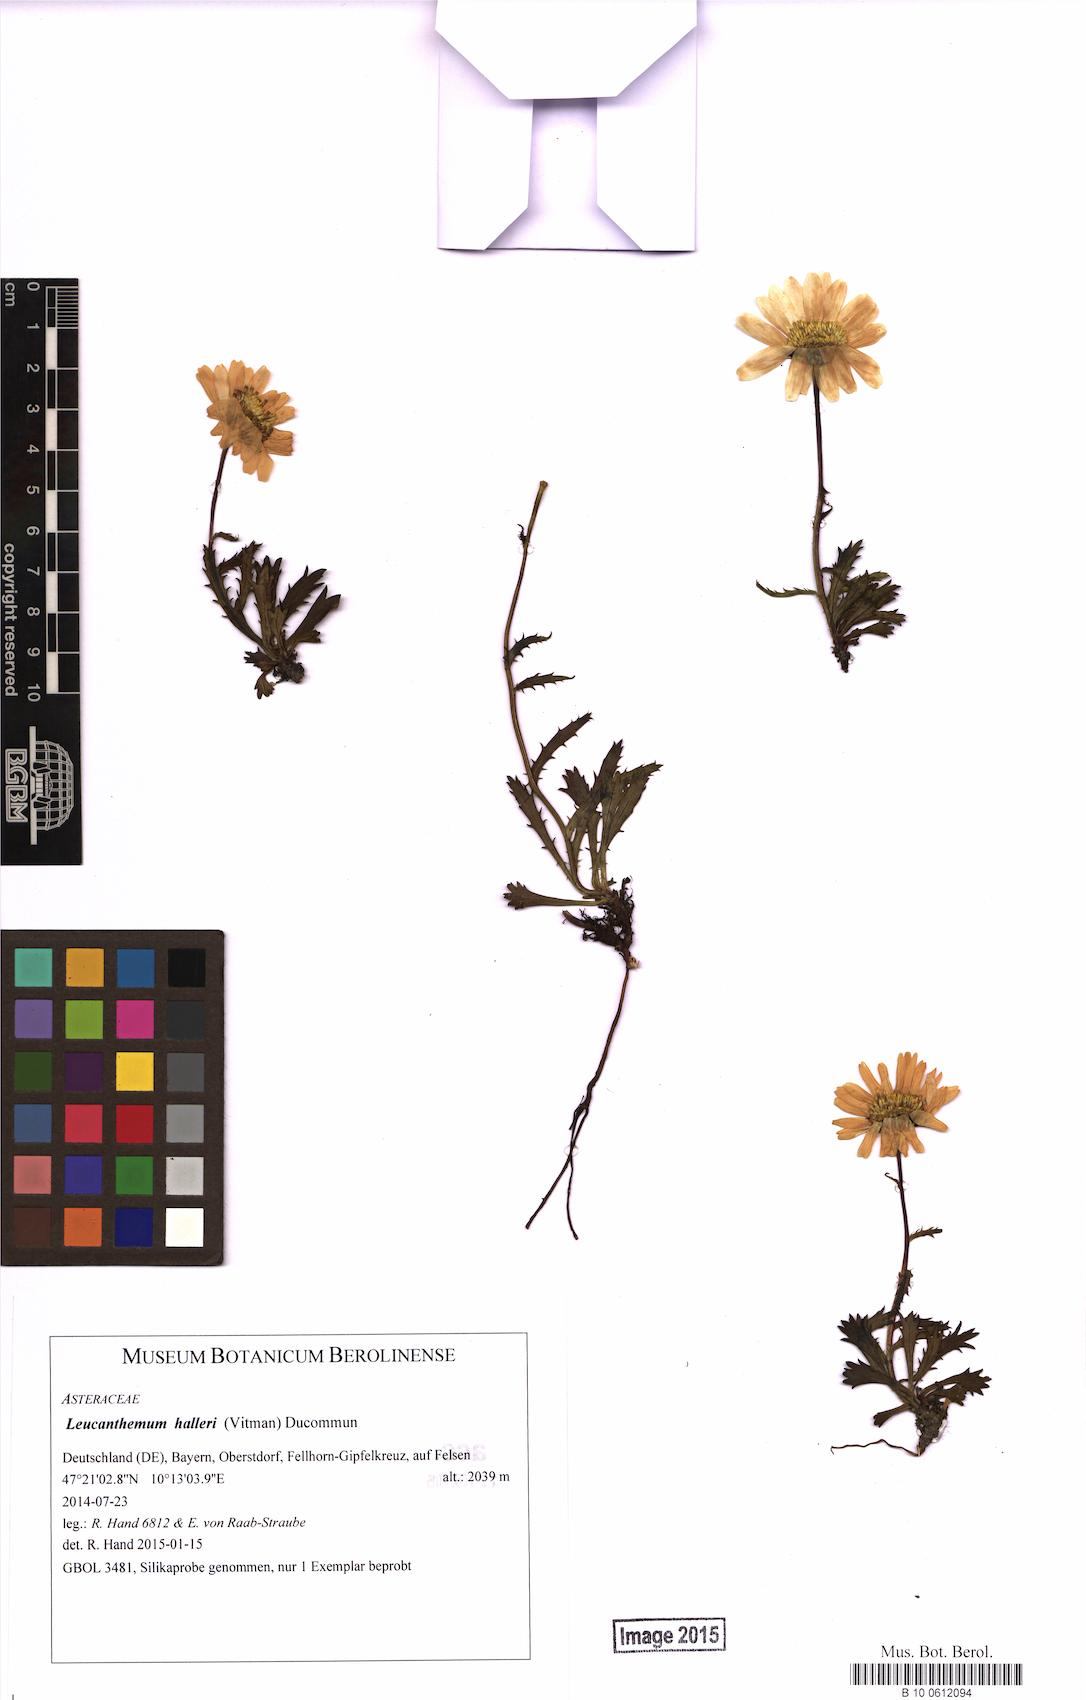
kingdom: Plantae
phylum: Tracheophyta
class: Magnoliopsida
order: Asterales
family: Asteraceae
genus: Leucanthemum
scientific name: Leucanthemum halleri
